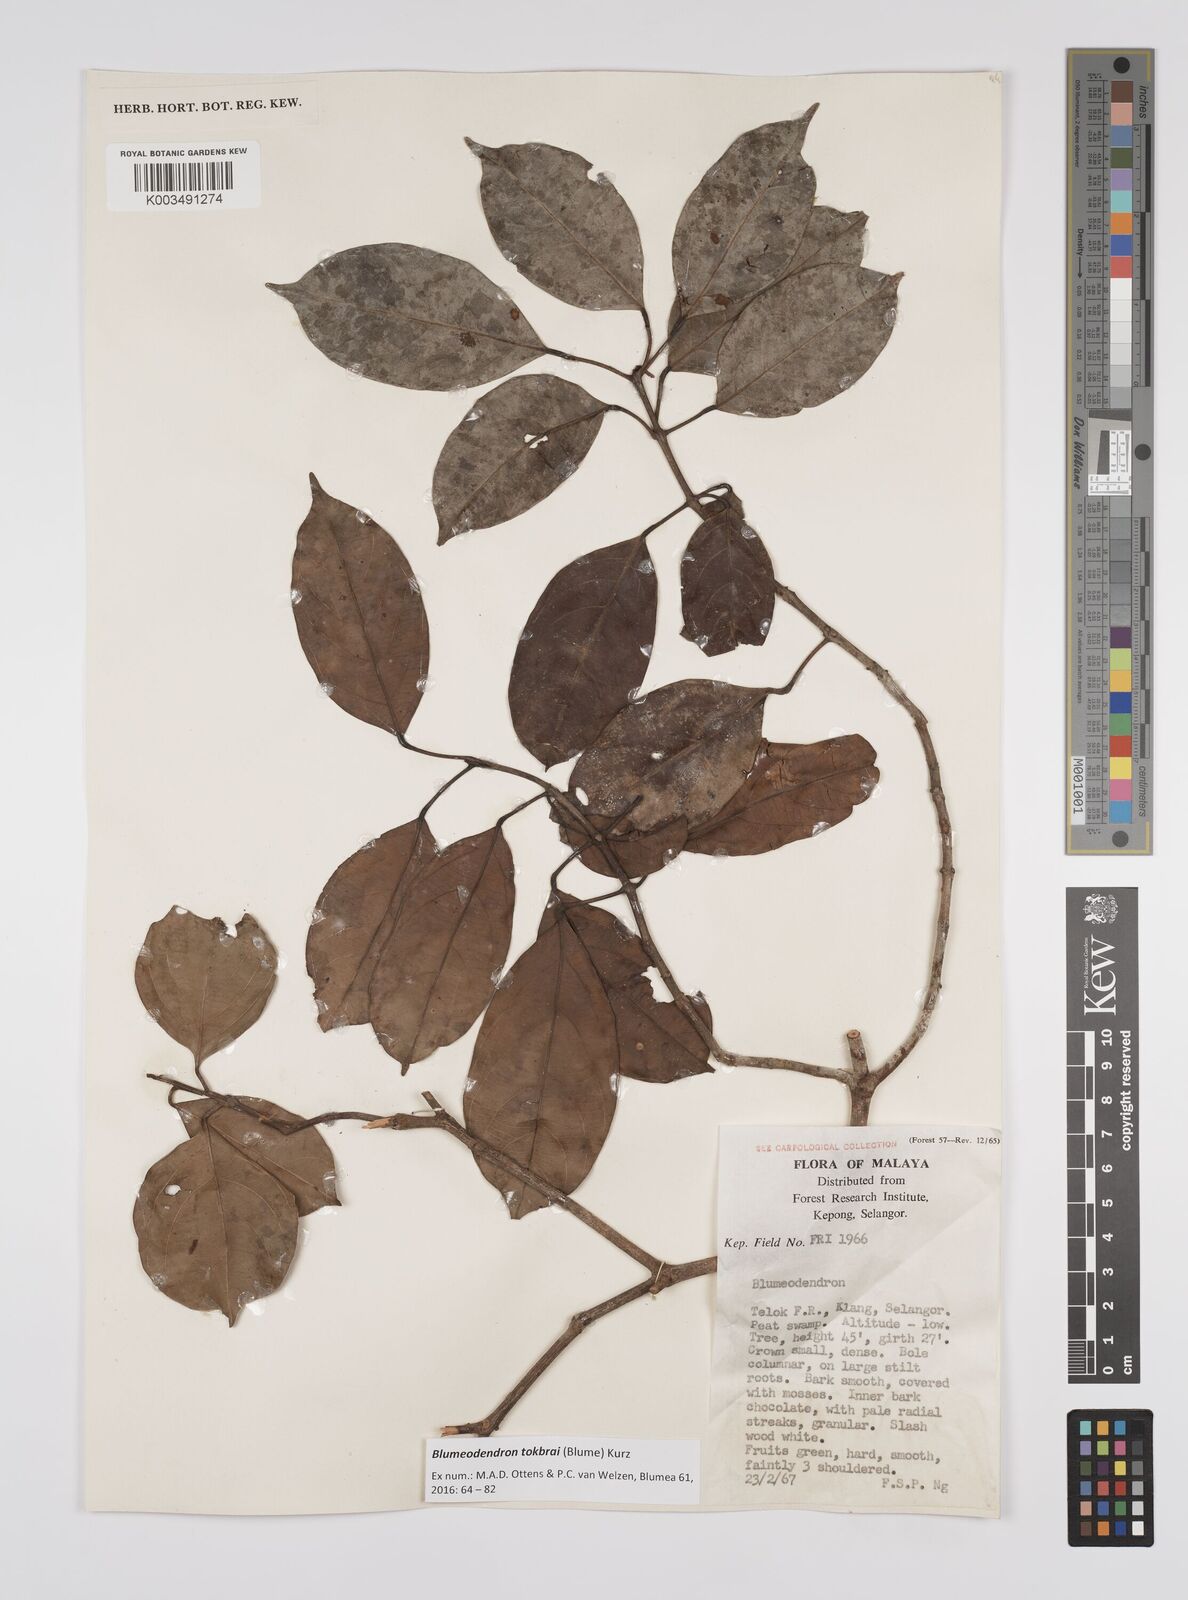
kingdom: Plantae
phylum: Tracheophyta
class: Magnoliopsida
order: Malpighiales
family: Euphorbiaceae
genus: Blumeodendron
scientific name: Blumeodendron tokbrai
